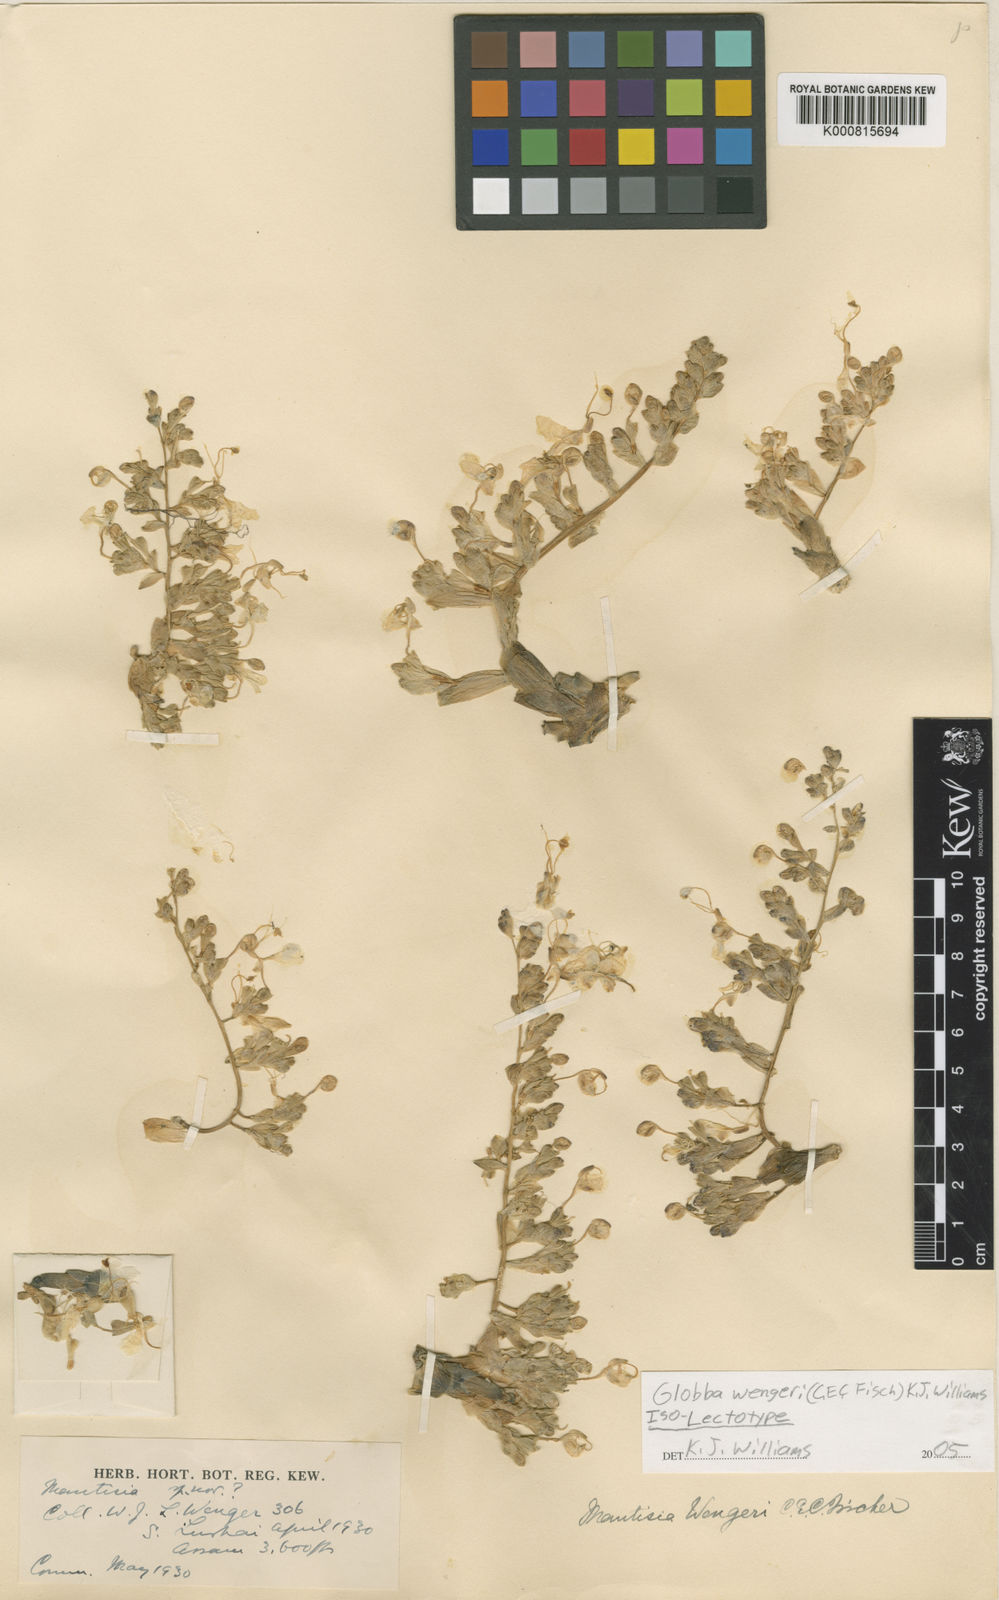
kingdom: Plantae
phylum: Tracheophyta
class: Liliopsida
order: Zingiberales
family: Zingiberaceae
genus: Globba
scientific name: Globba wengeri
